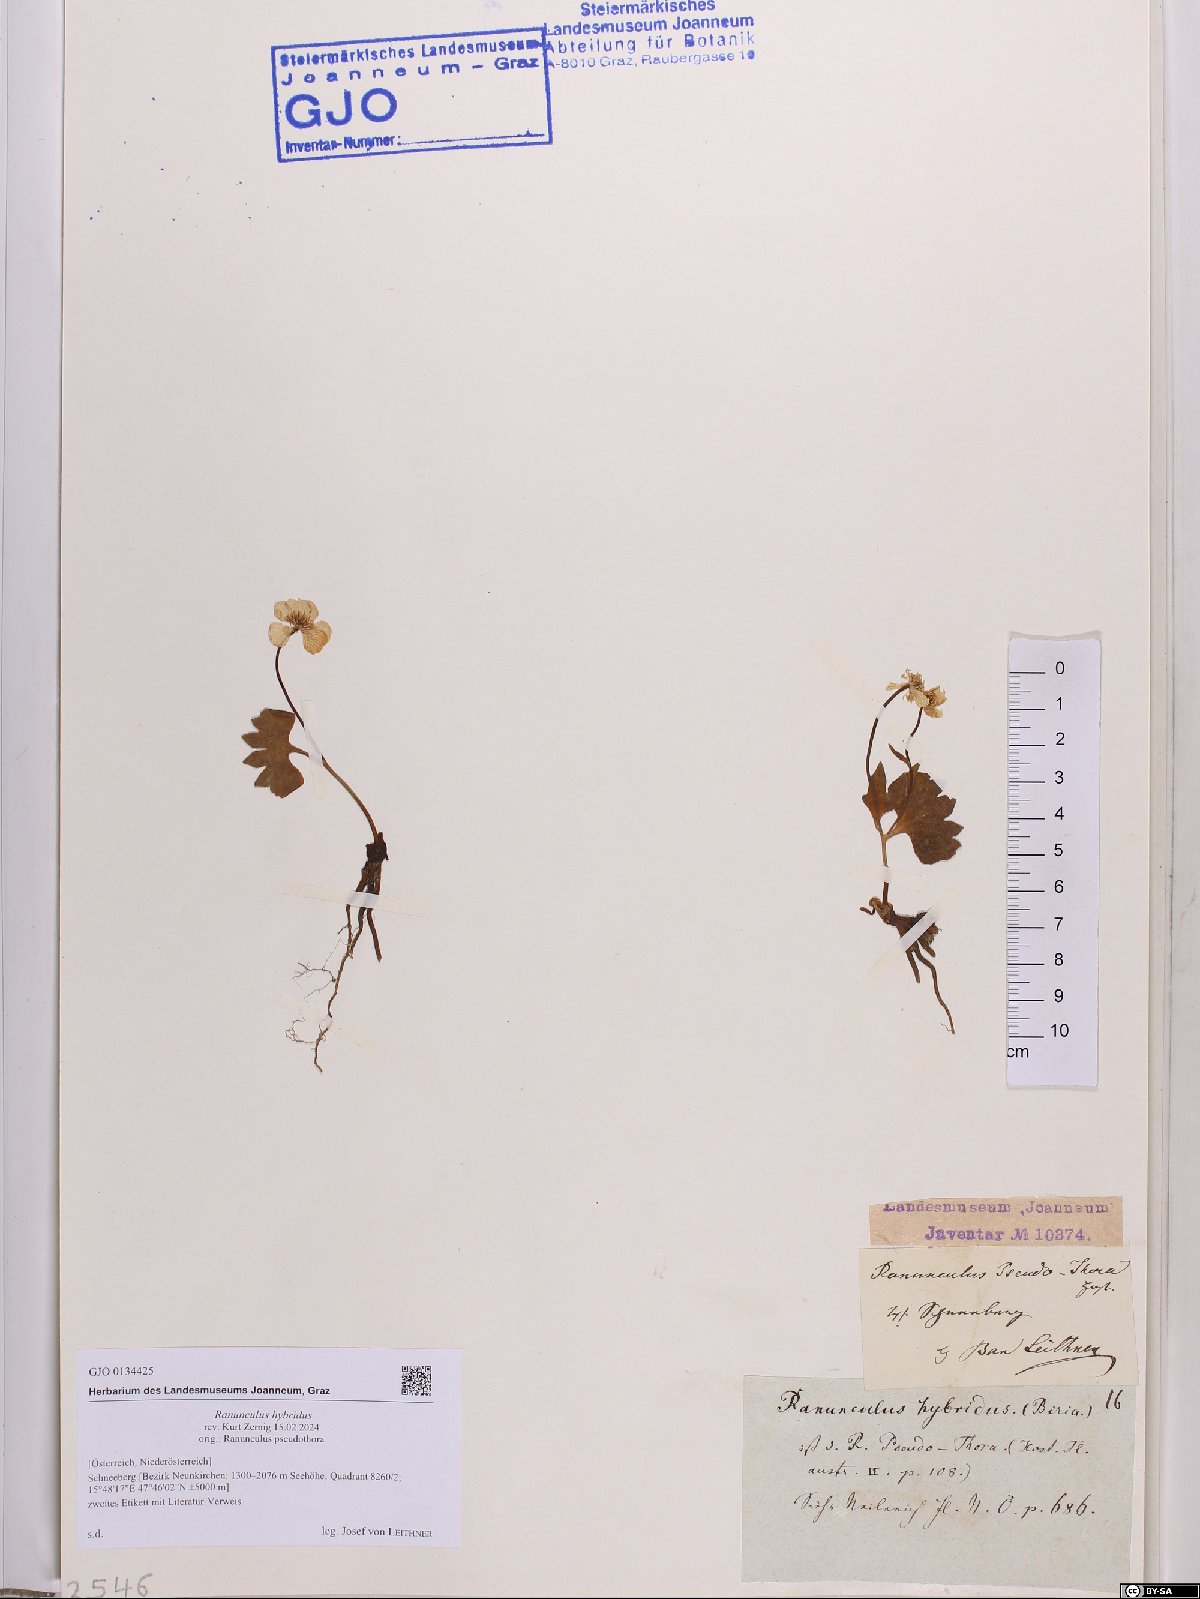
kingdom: Plantae
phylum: Tracheophyta
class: Magnoliopsida
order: Ranunculales
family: Ranunculaceae
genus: Ranunculus
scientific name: Ranunculus hybridus
